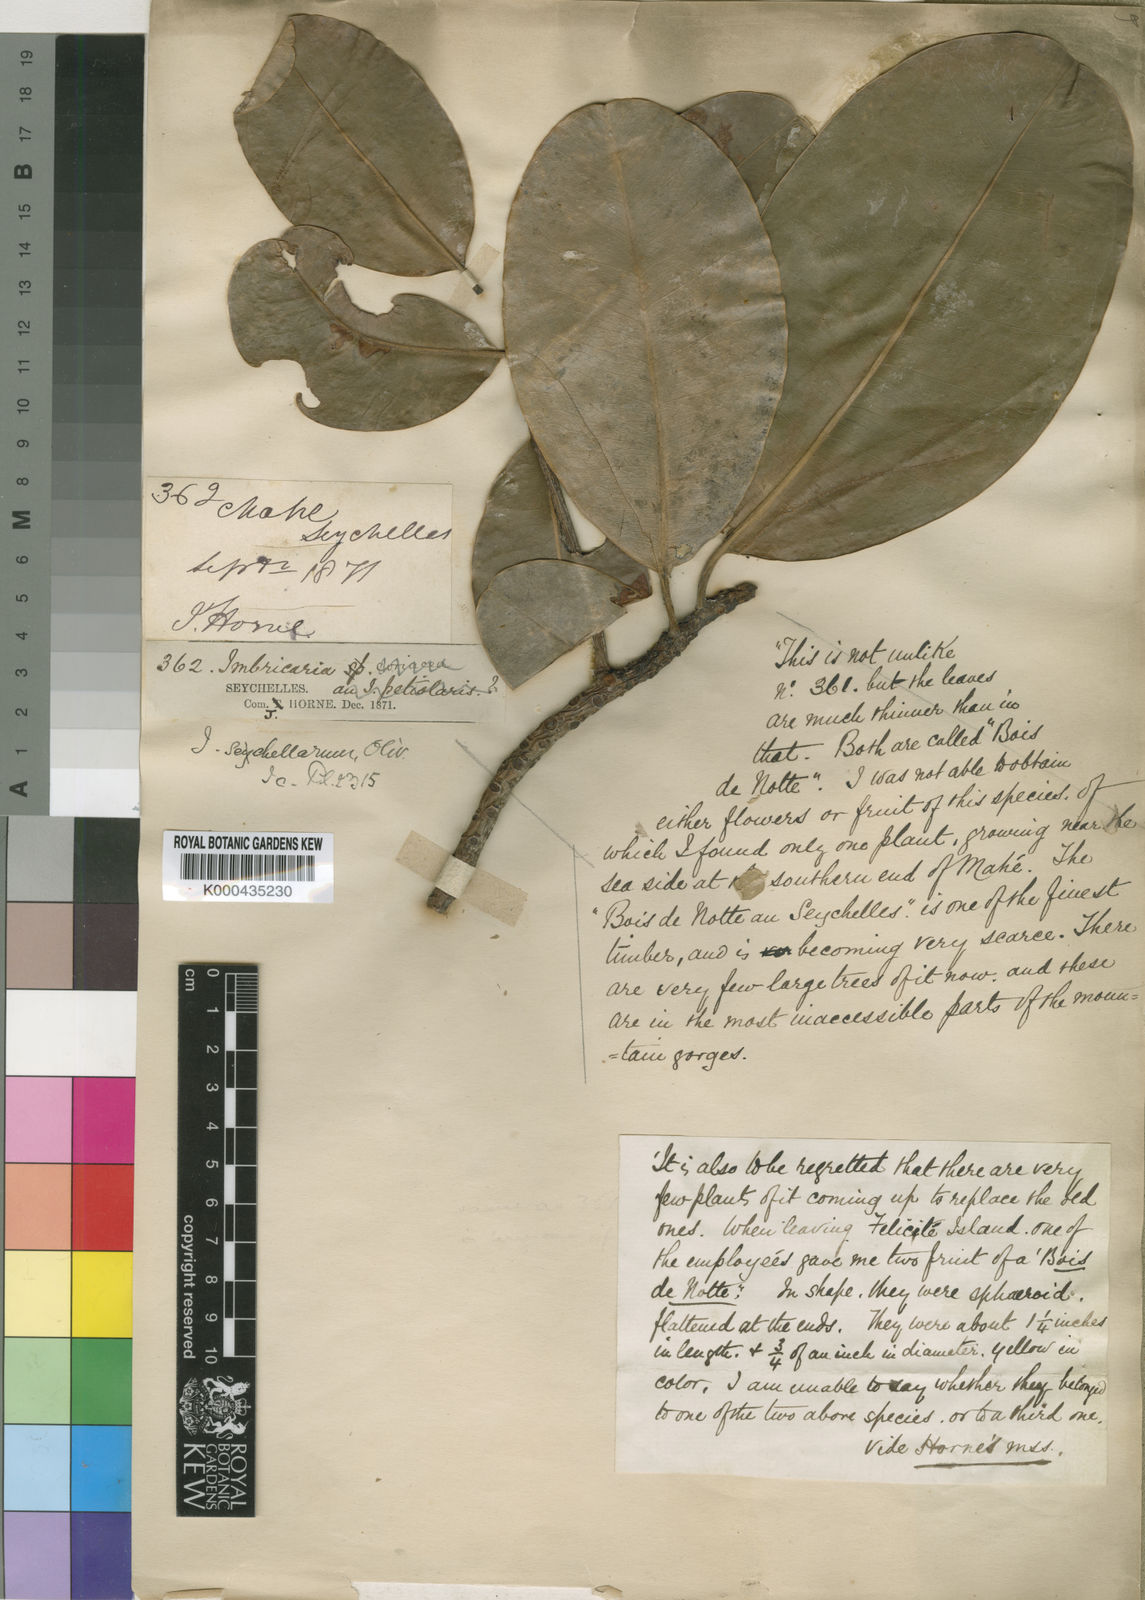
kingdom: Plantae
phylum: Tracheophyta
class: Magnoliopsida
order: Ericales
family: Sapotaceae
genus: Mimusops
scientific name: Mimusops sechellarum
